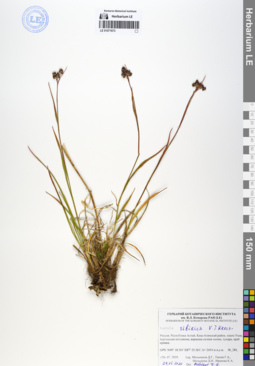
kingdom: Plantae
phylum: Tracheophyta
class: Liliopsida
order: Poales
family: Juncaceae
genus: Luzula
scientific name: Luzula multiflora
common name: Heath wood-rush
